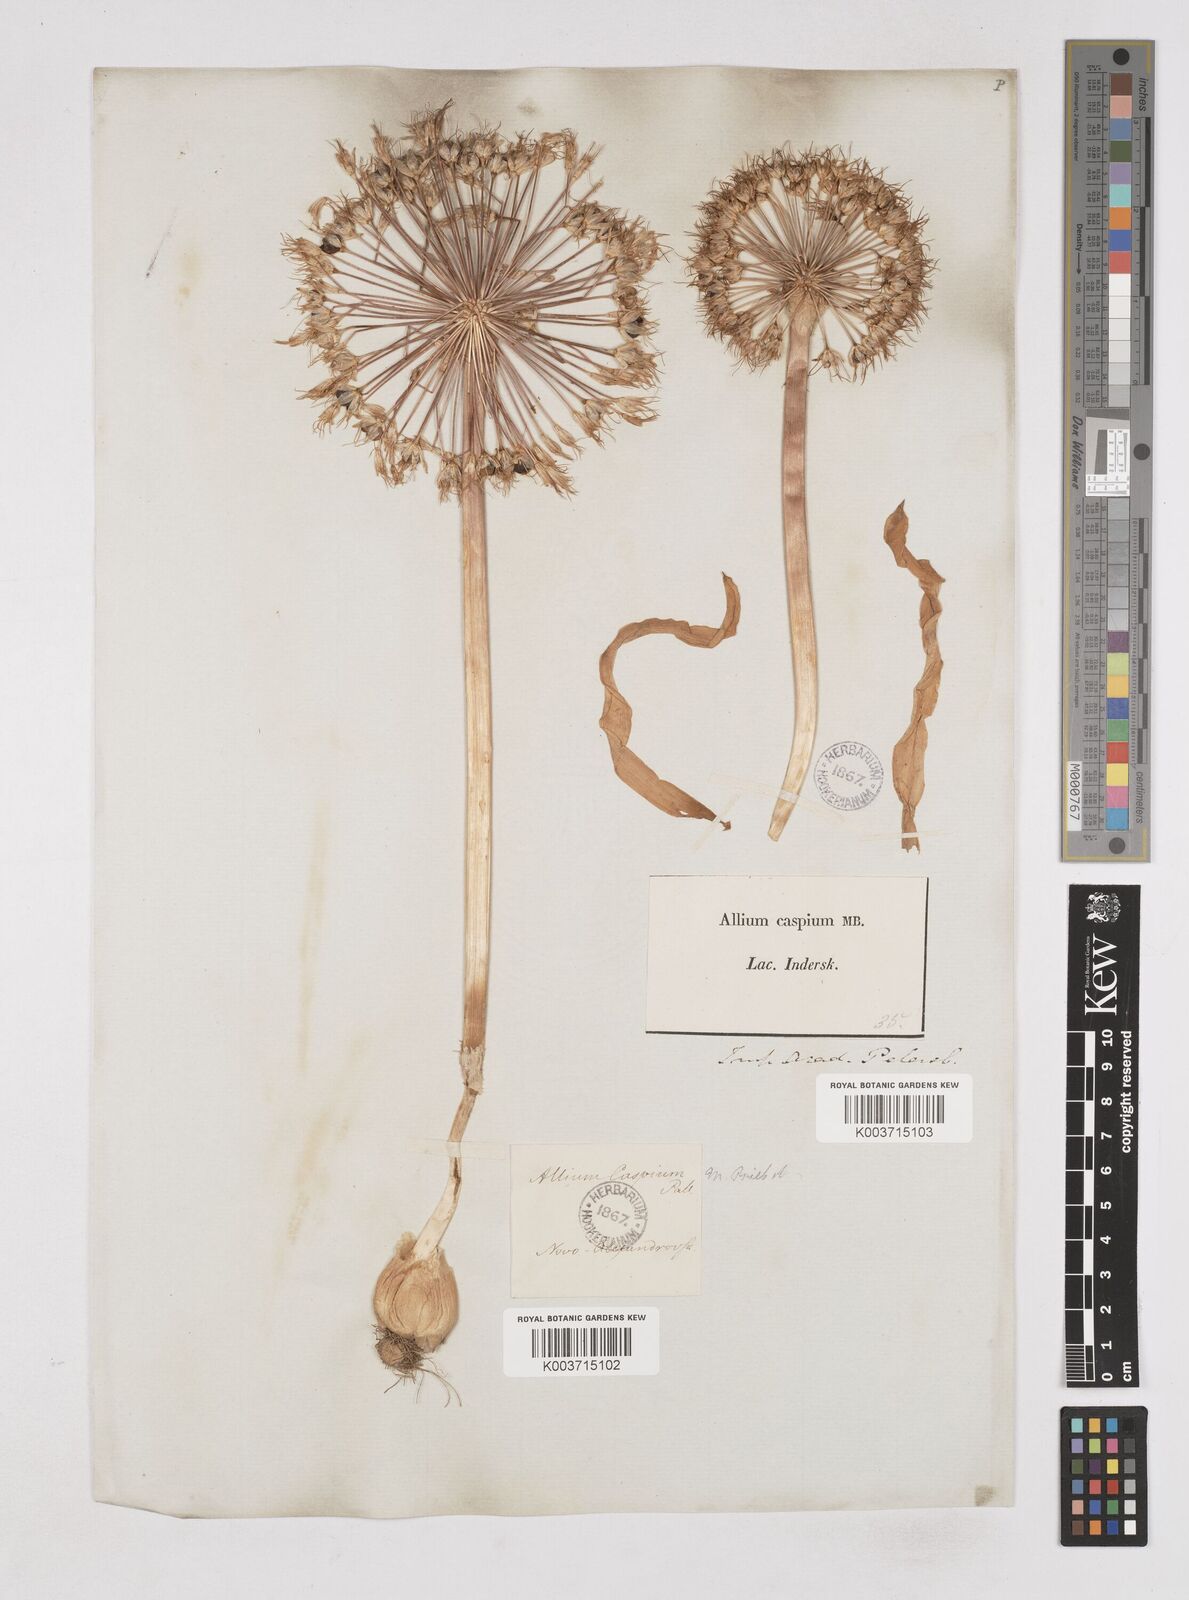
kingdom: Plantae
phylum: Tracheophyta
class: Liliopsida
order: Asparagales
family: Amaryllidaceae
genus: Allium
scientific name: Allium caspium
